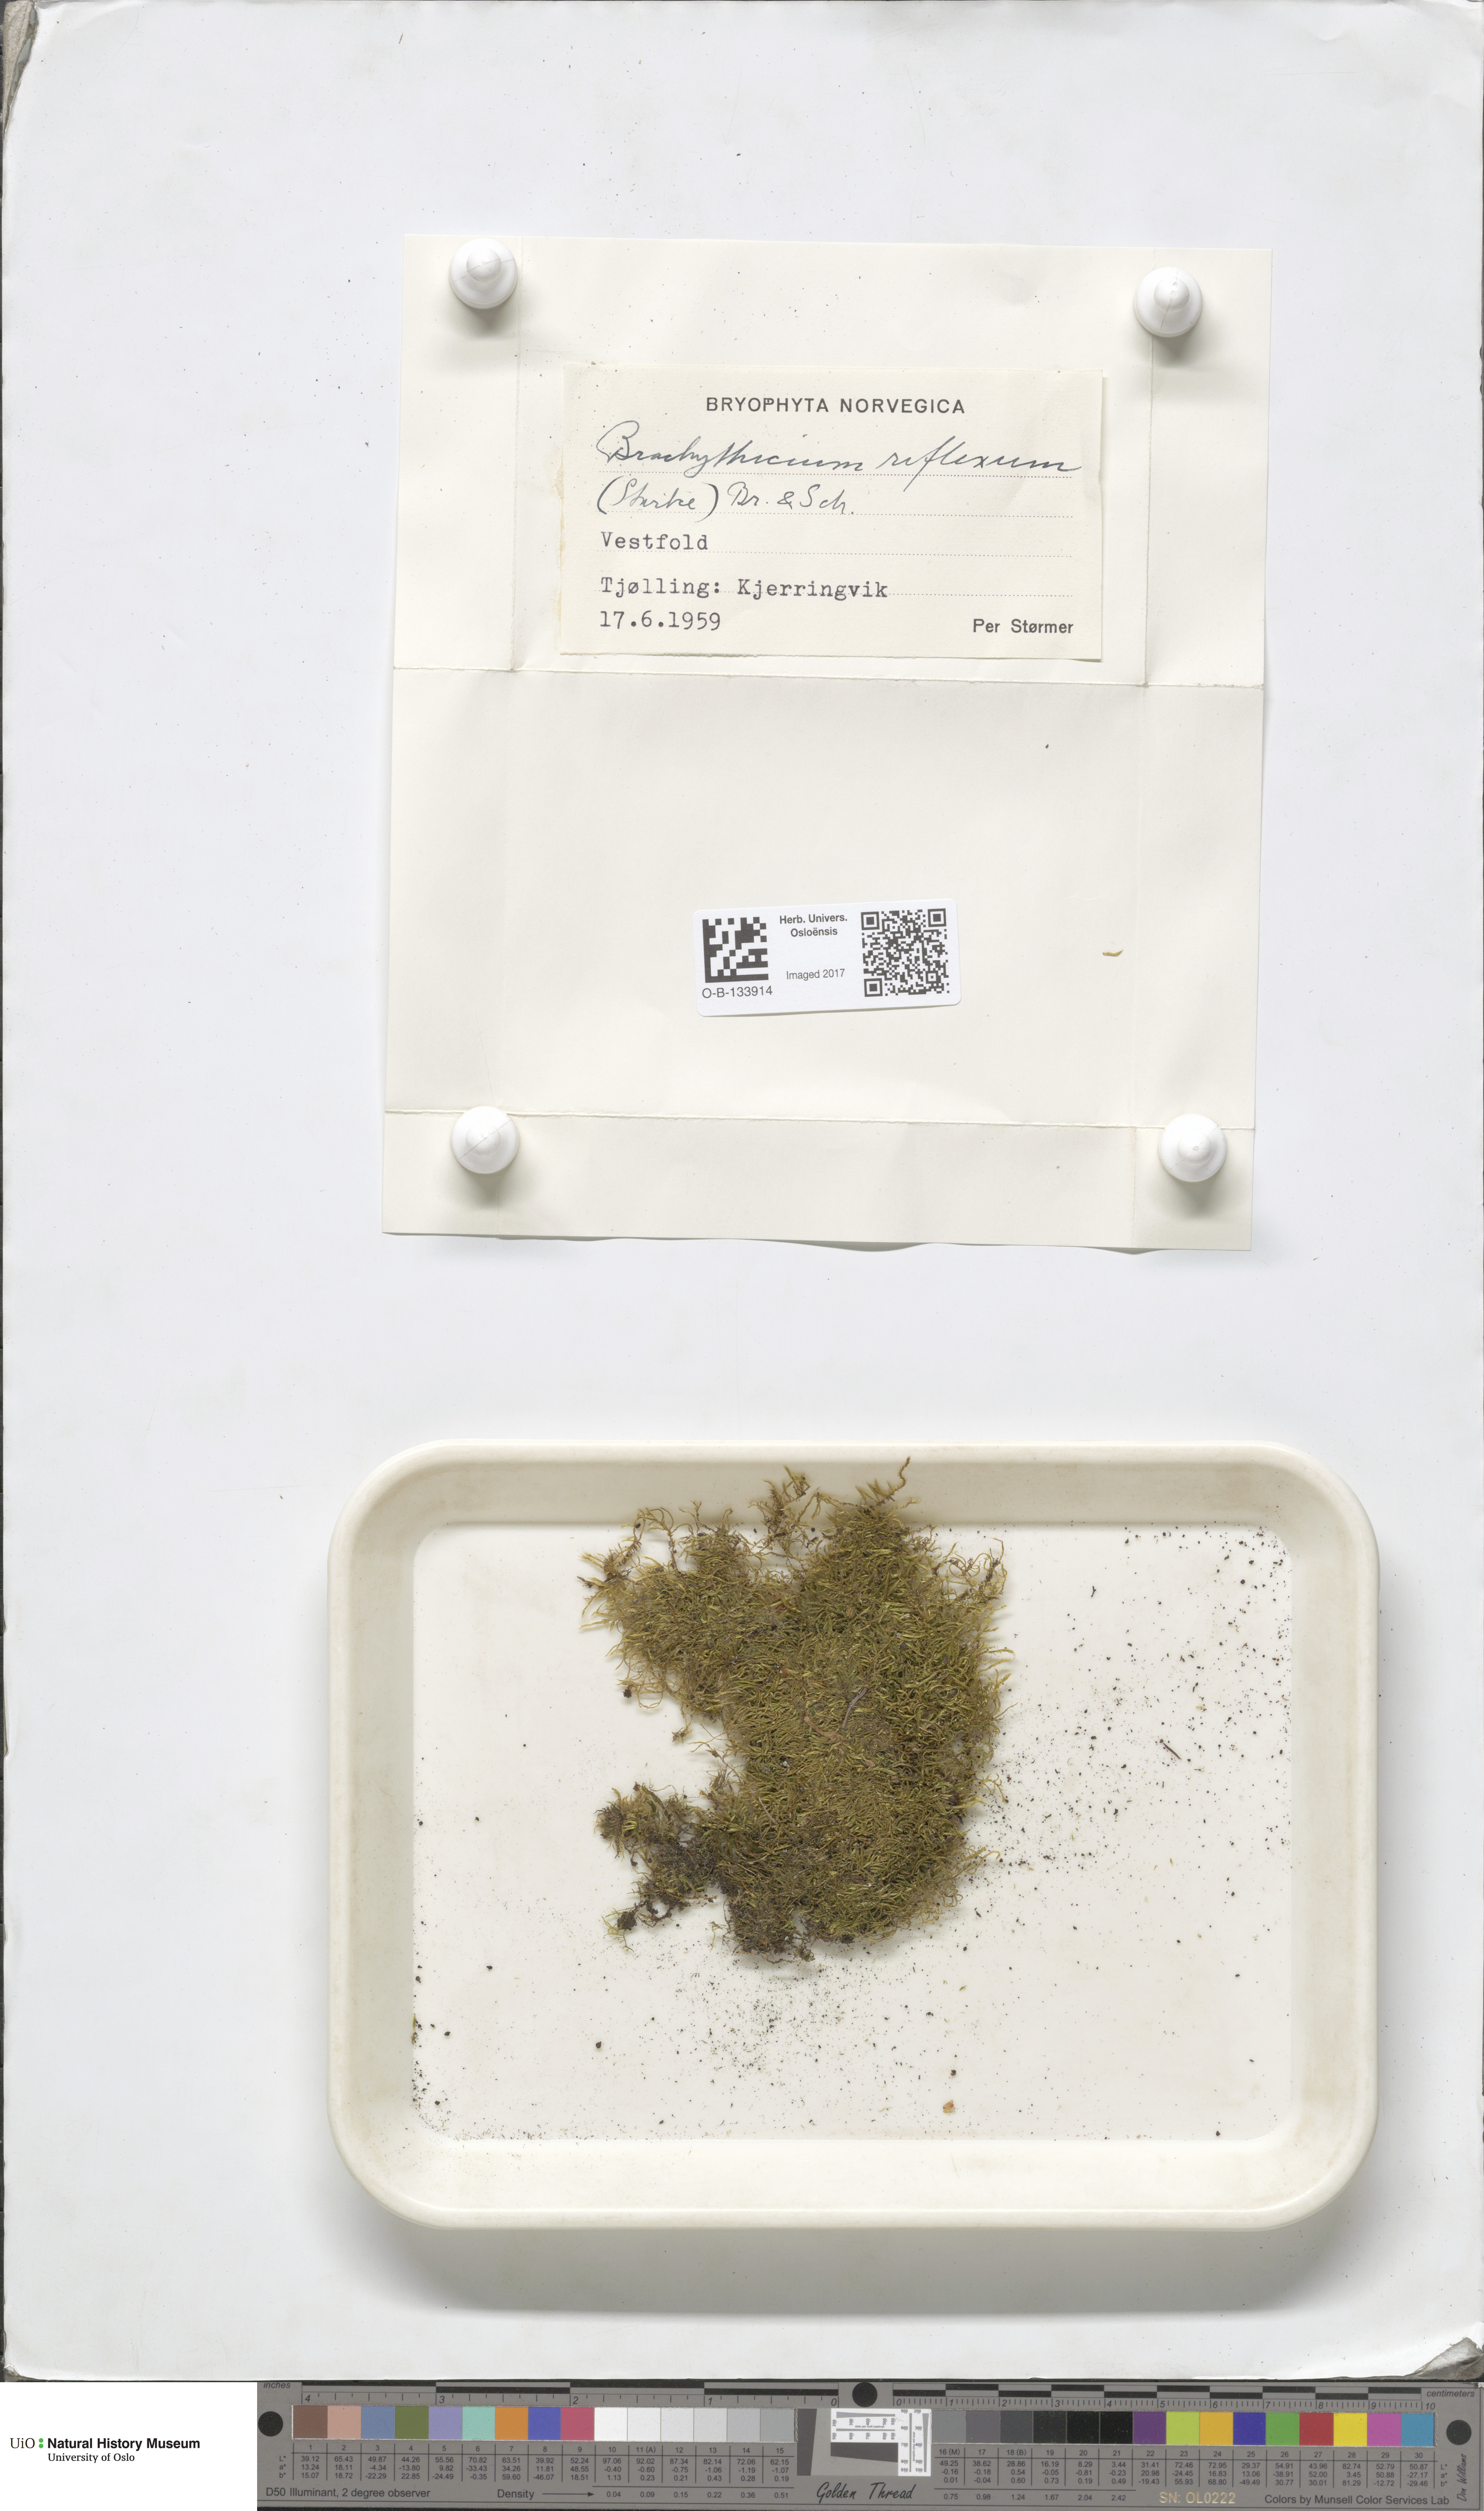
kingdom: Plantae
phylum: Bryophyta
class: Bryopsida
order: Hypnales
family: Brachytheciaceae
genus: Sciuro-hypnum
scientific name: Sciuro-hypnum reflexum
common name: Reflexed feather-moss
